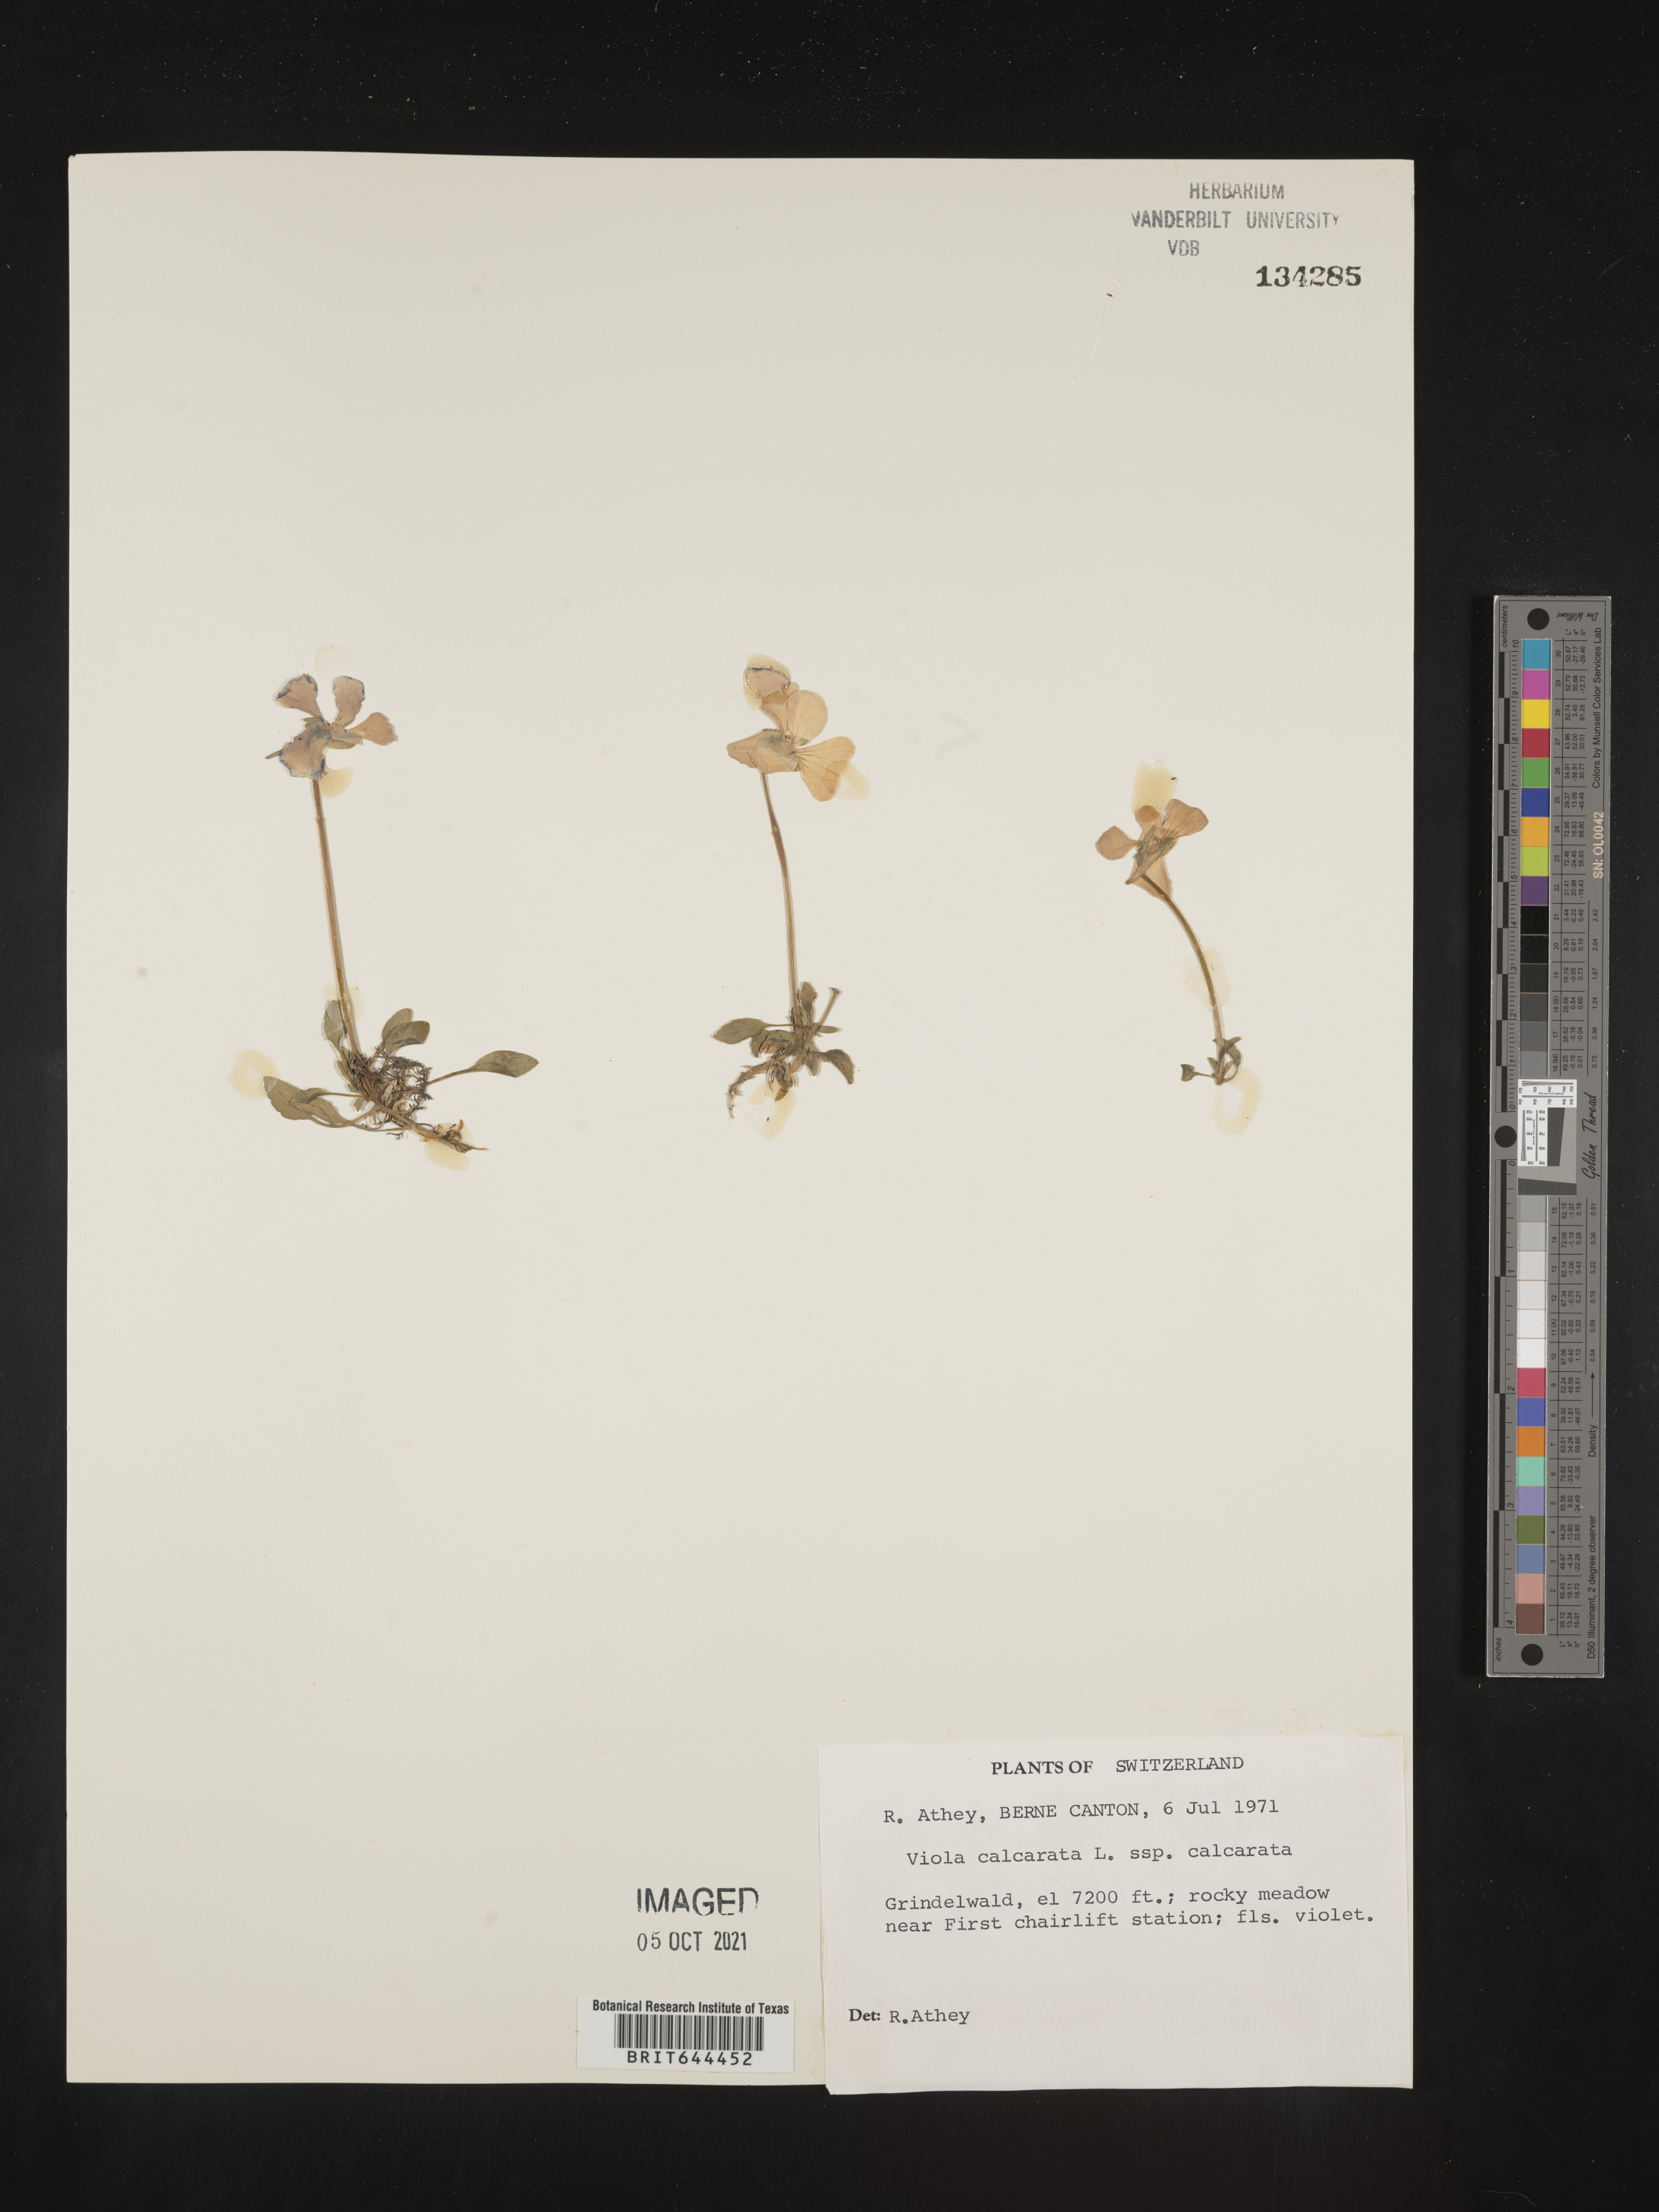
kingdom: Plantae
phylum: Tracheophyta
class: Magnoliopsida
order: Malpighiales
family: Violaceae
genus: Viola
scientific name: Viola
